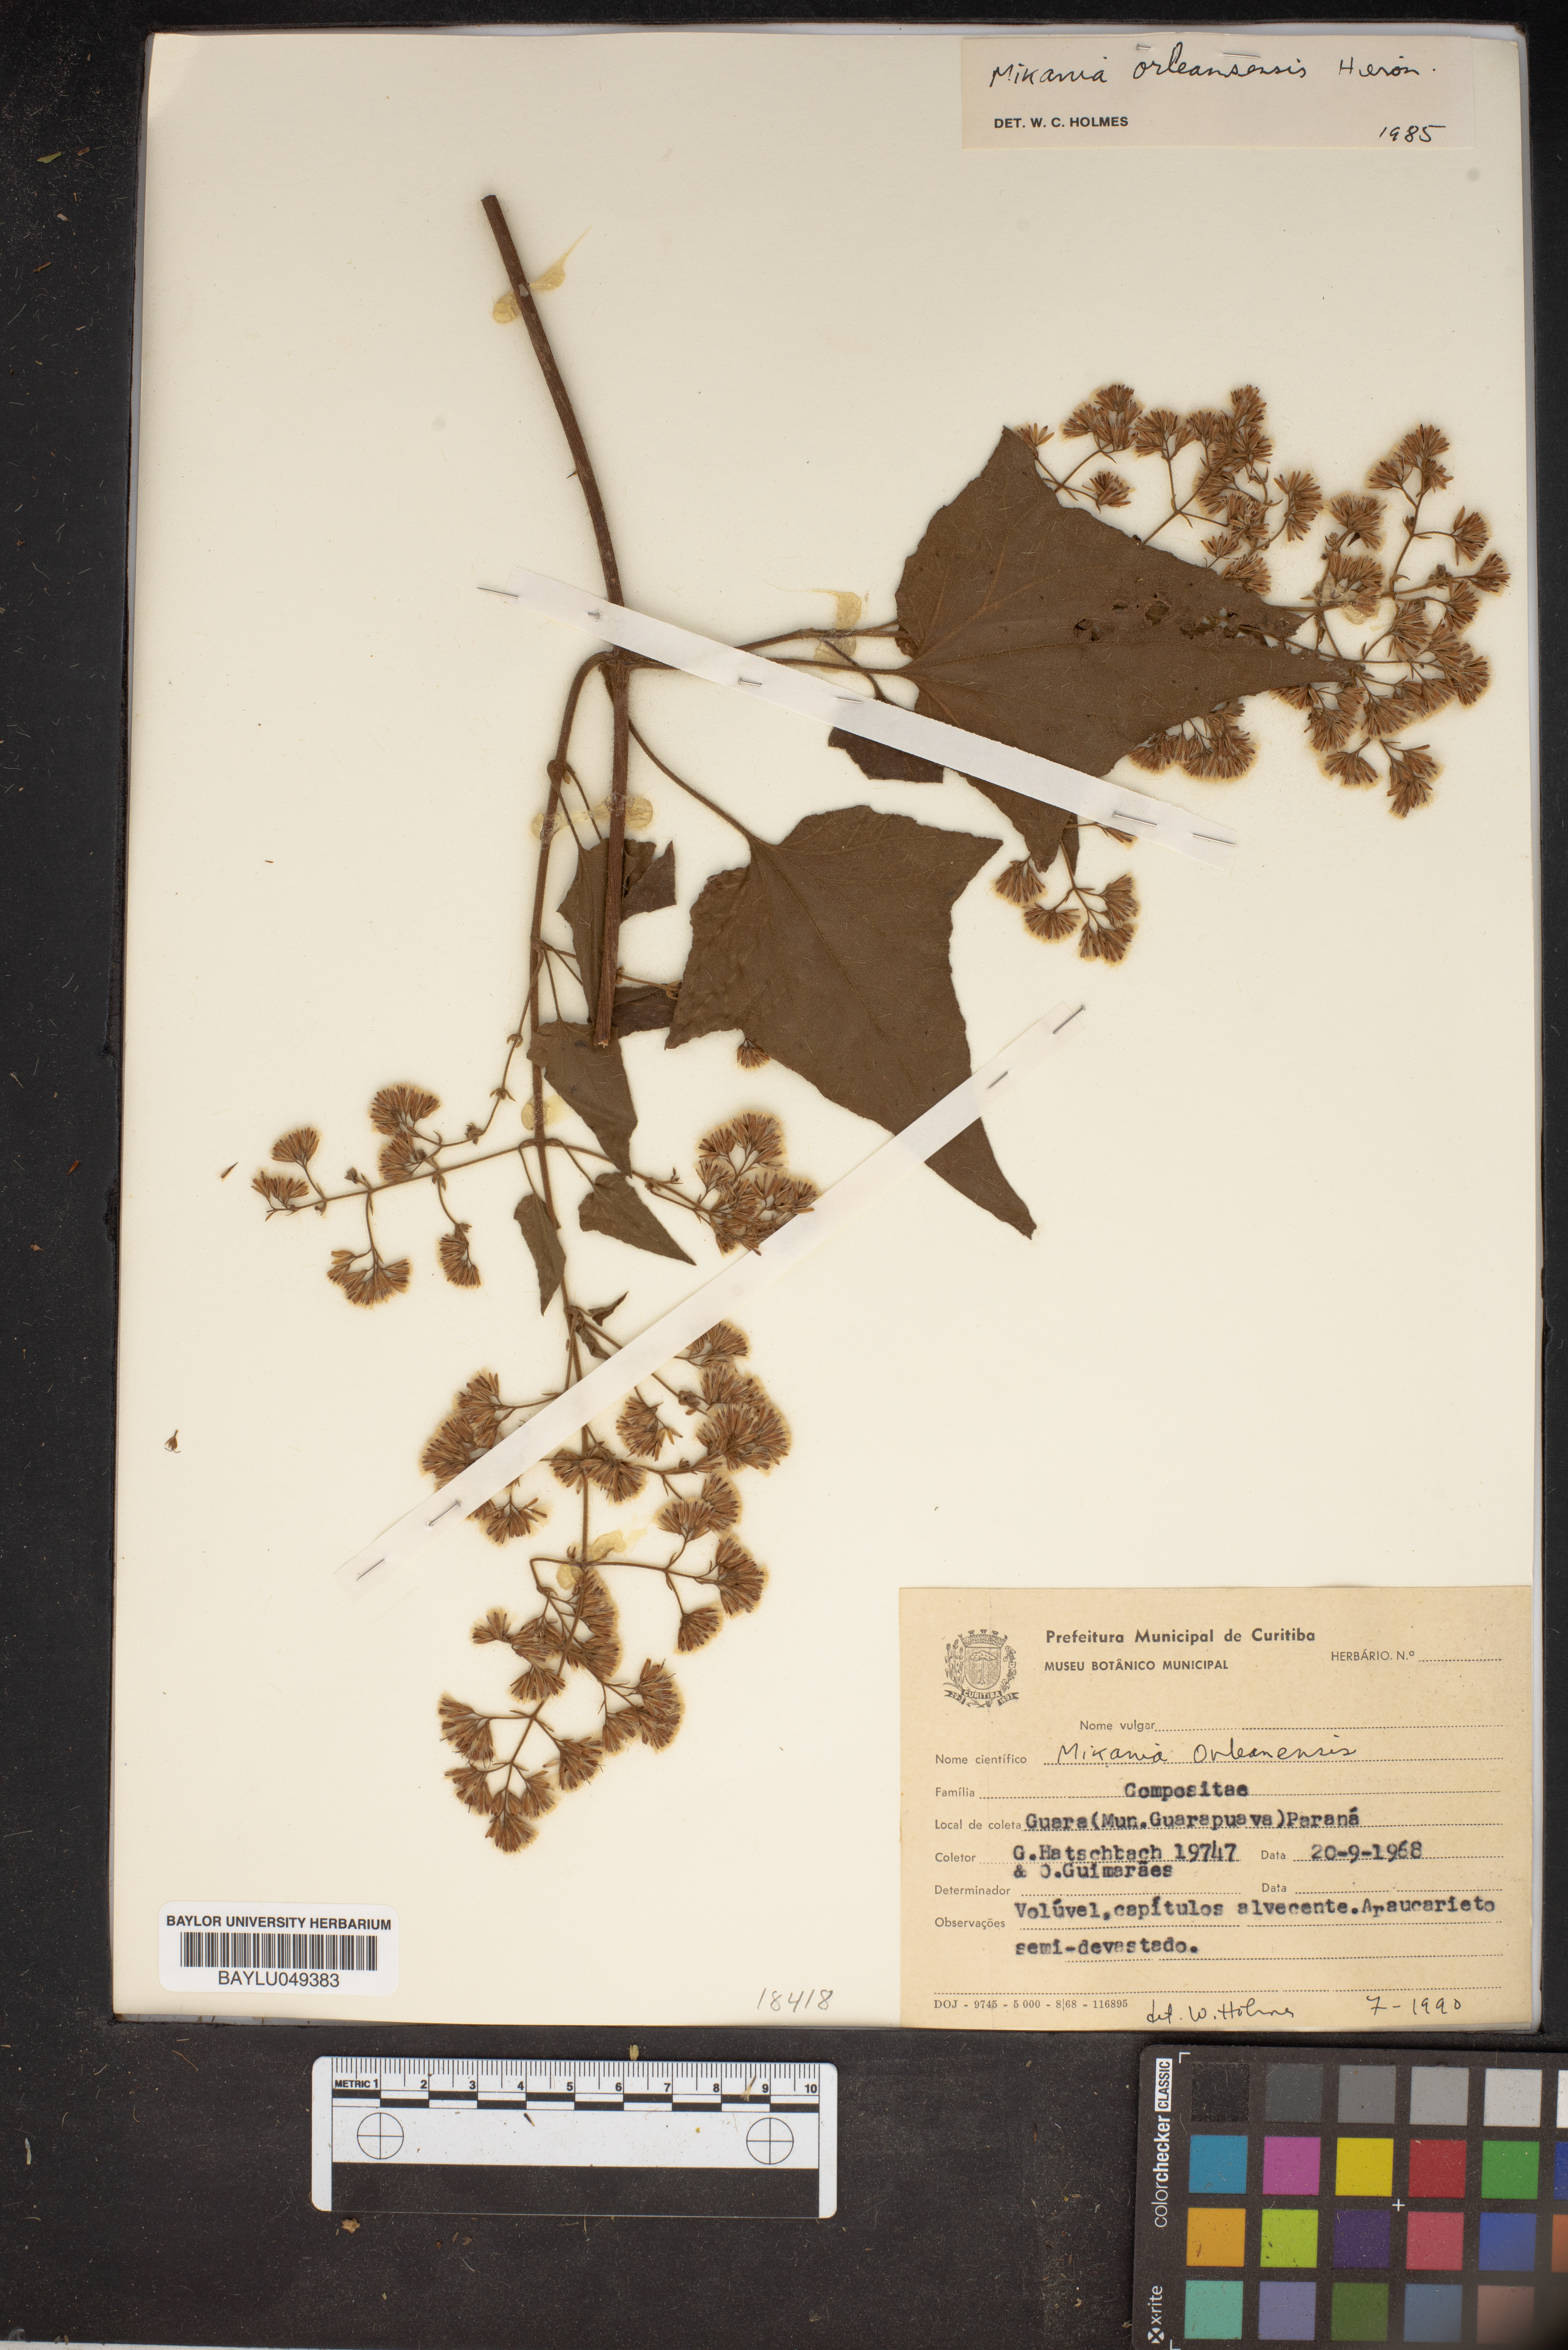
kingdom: Plantae
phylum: Tracheophyta
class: Magnoliopsida
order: Asterales
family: Asteraceae
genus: Mikania
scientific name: Mikania orleansensis
